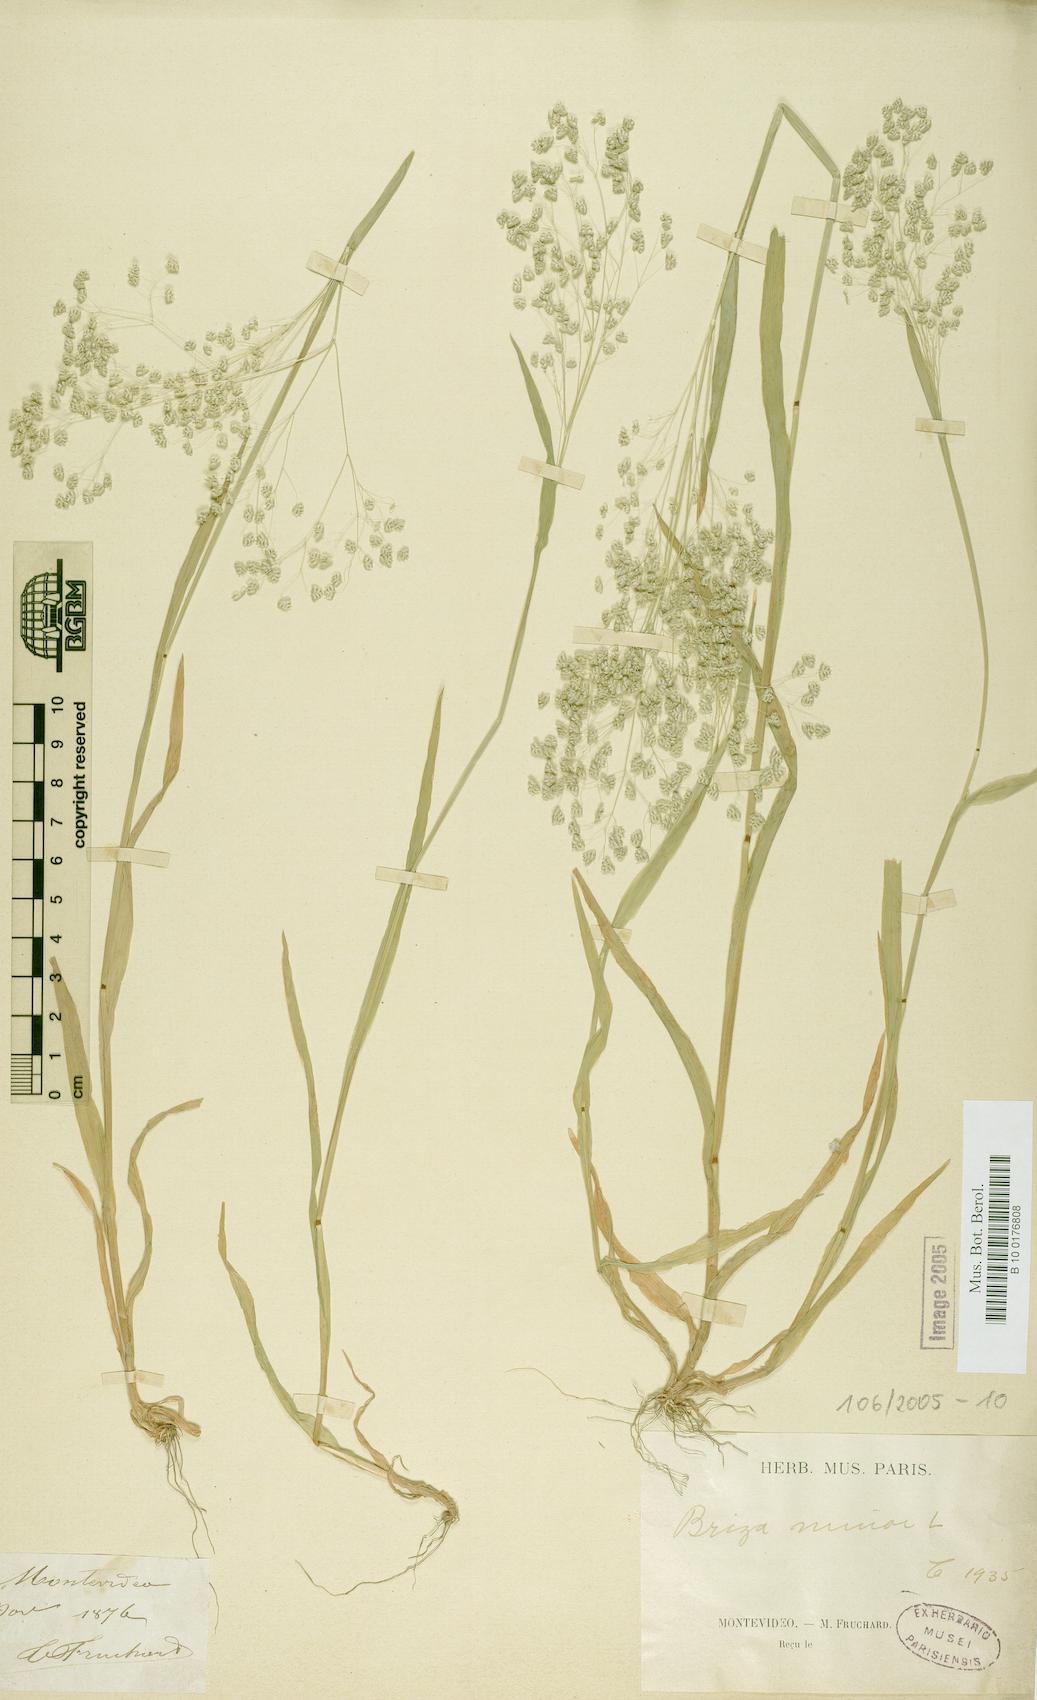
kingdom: Plantae
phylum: Tracheophyta
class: Liliopsida
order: Poales
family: Poaceae
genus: Briza
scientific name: Briza minor
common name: Lesser quaking-grass
